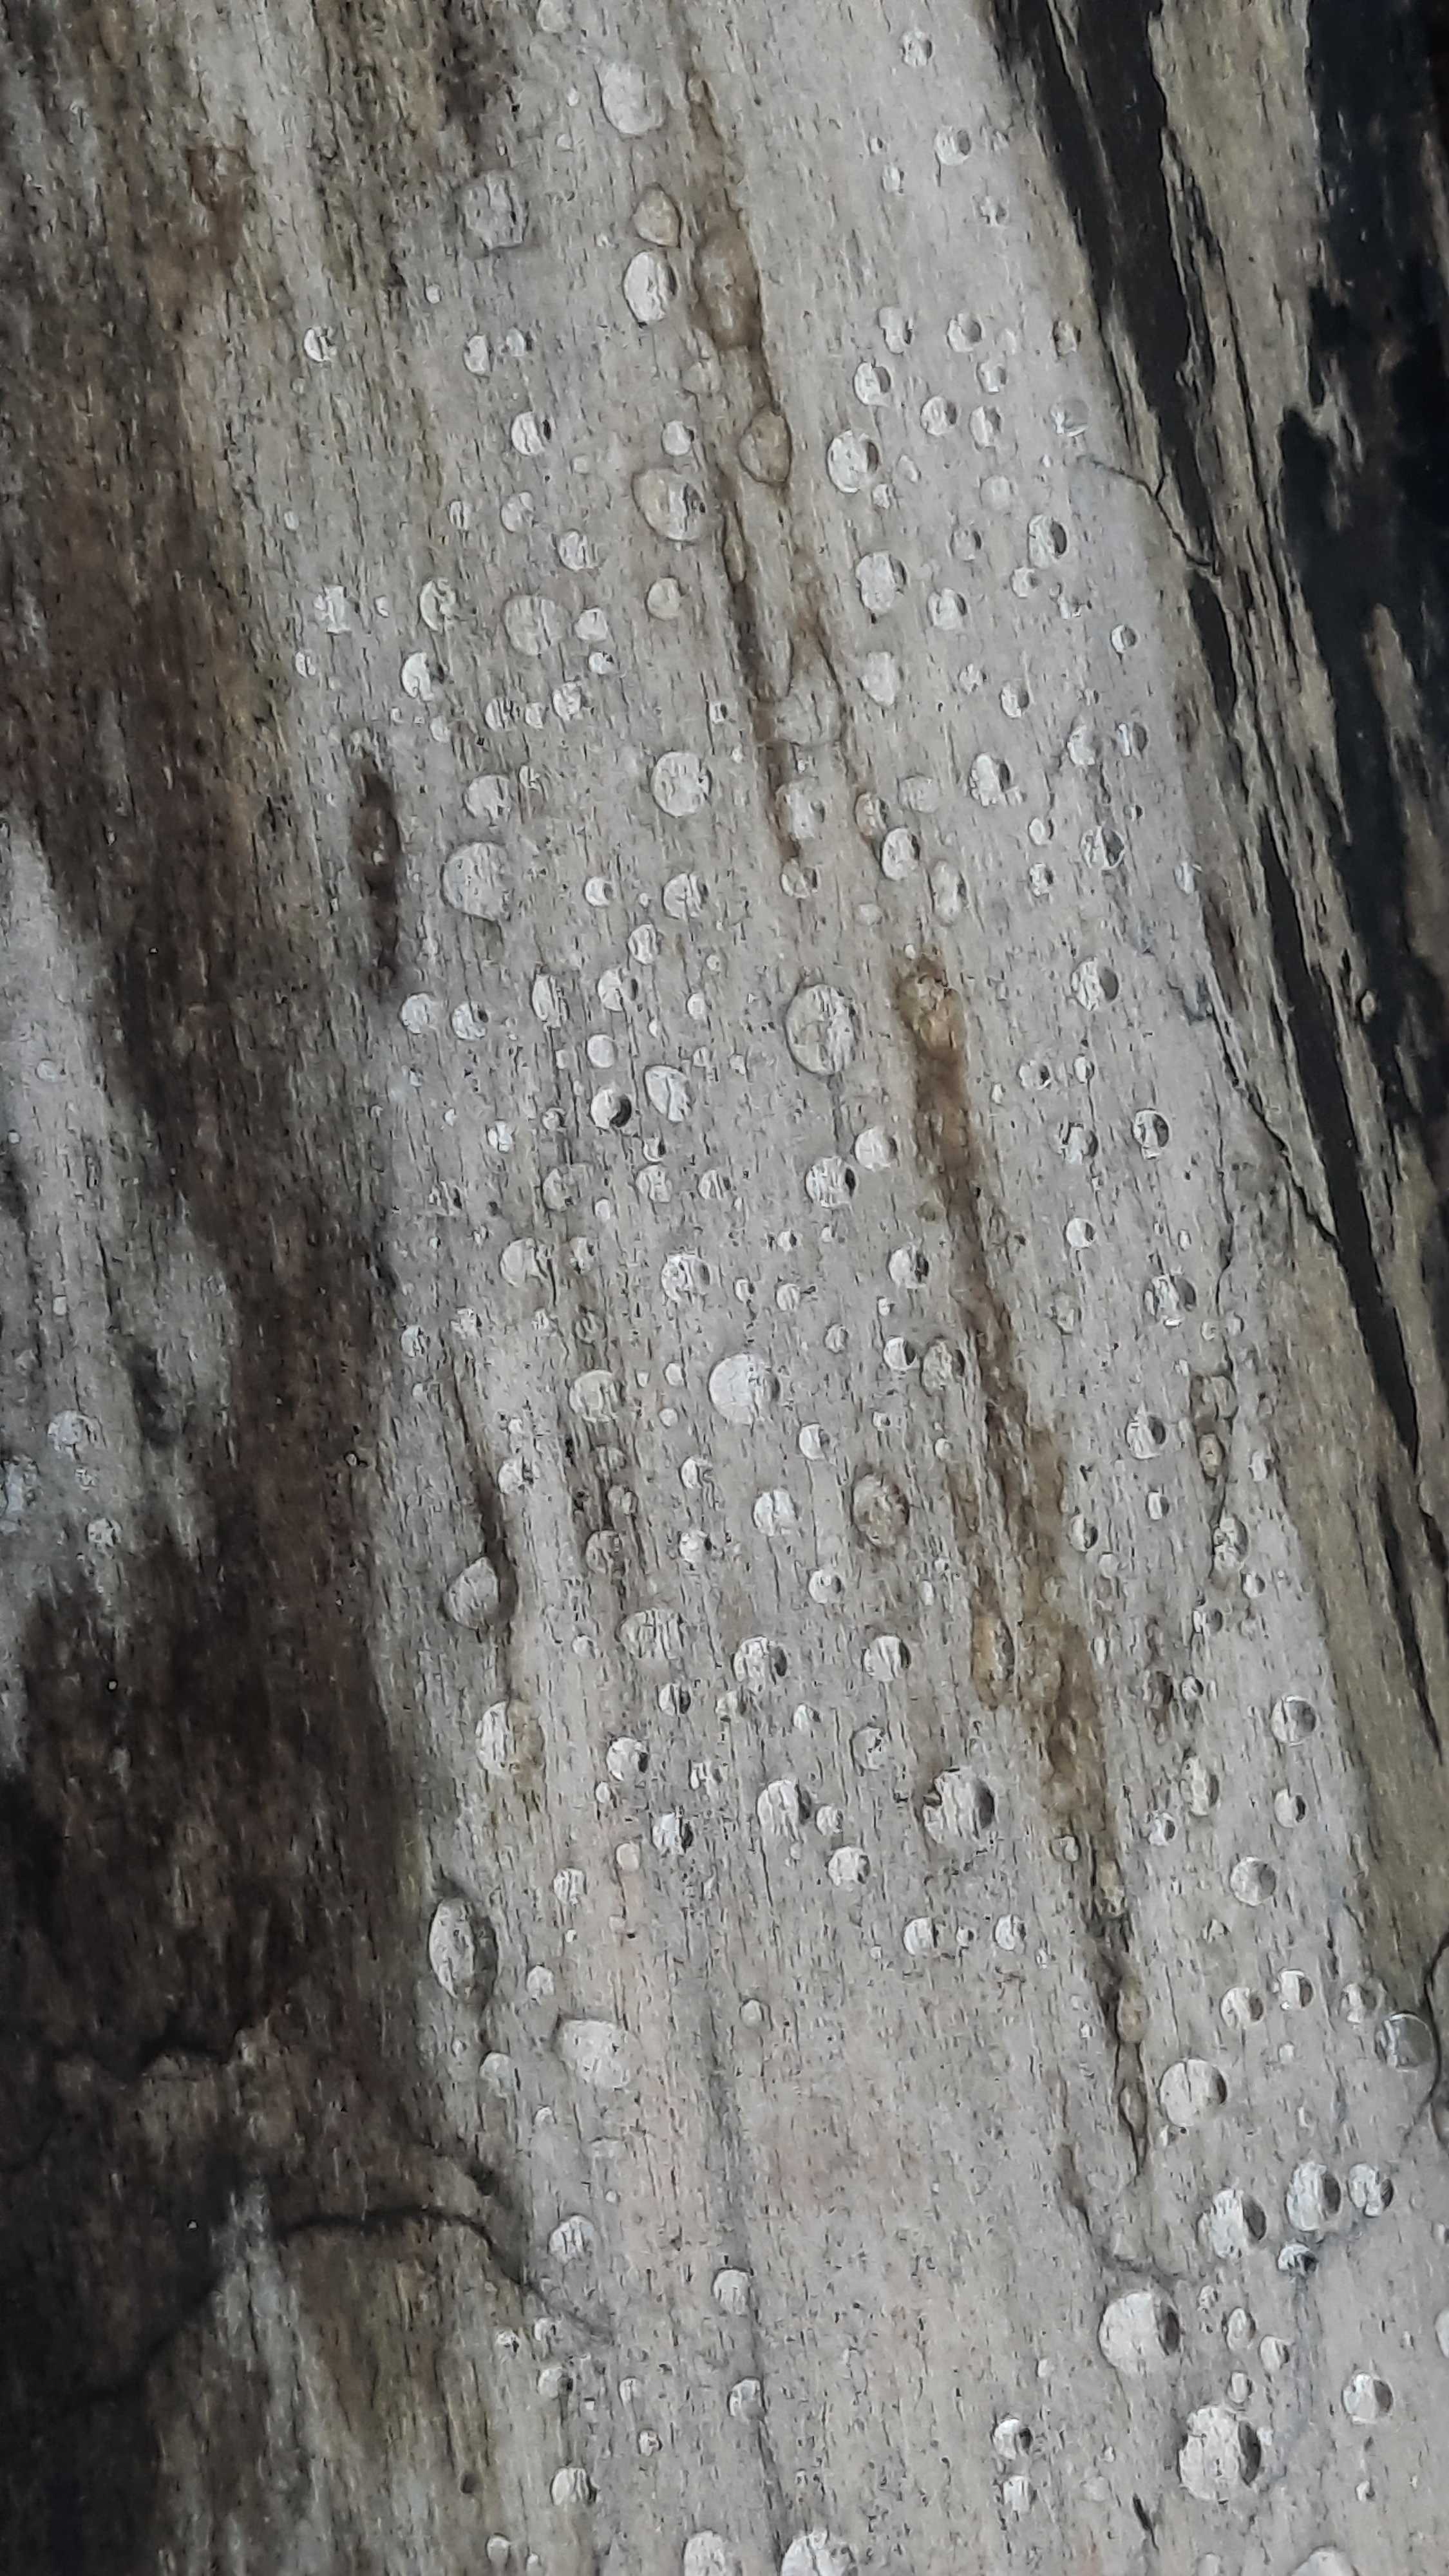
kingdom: Fungi
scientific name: Fungi
